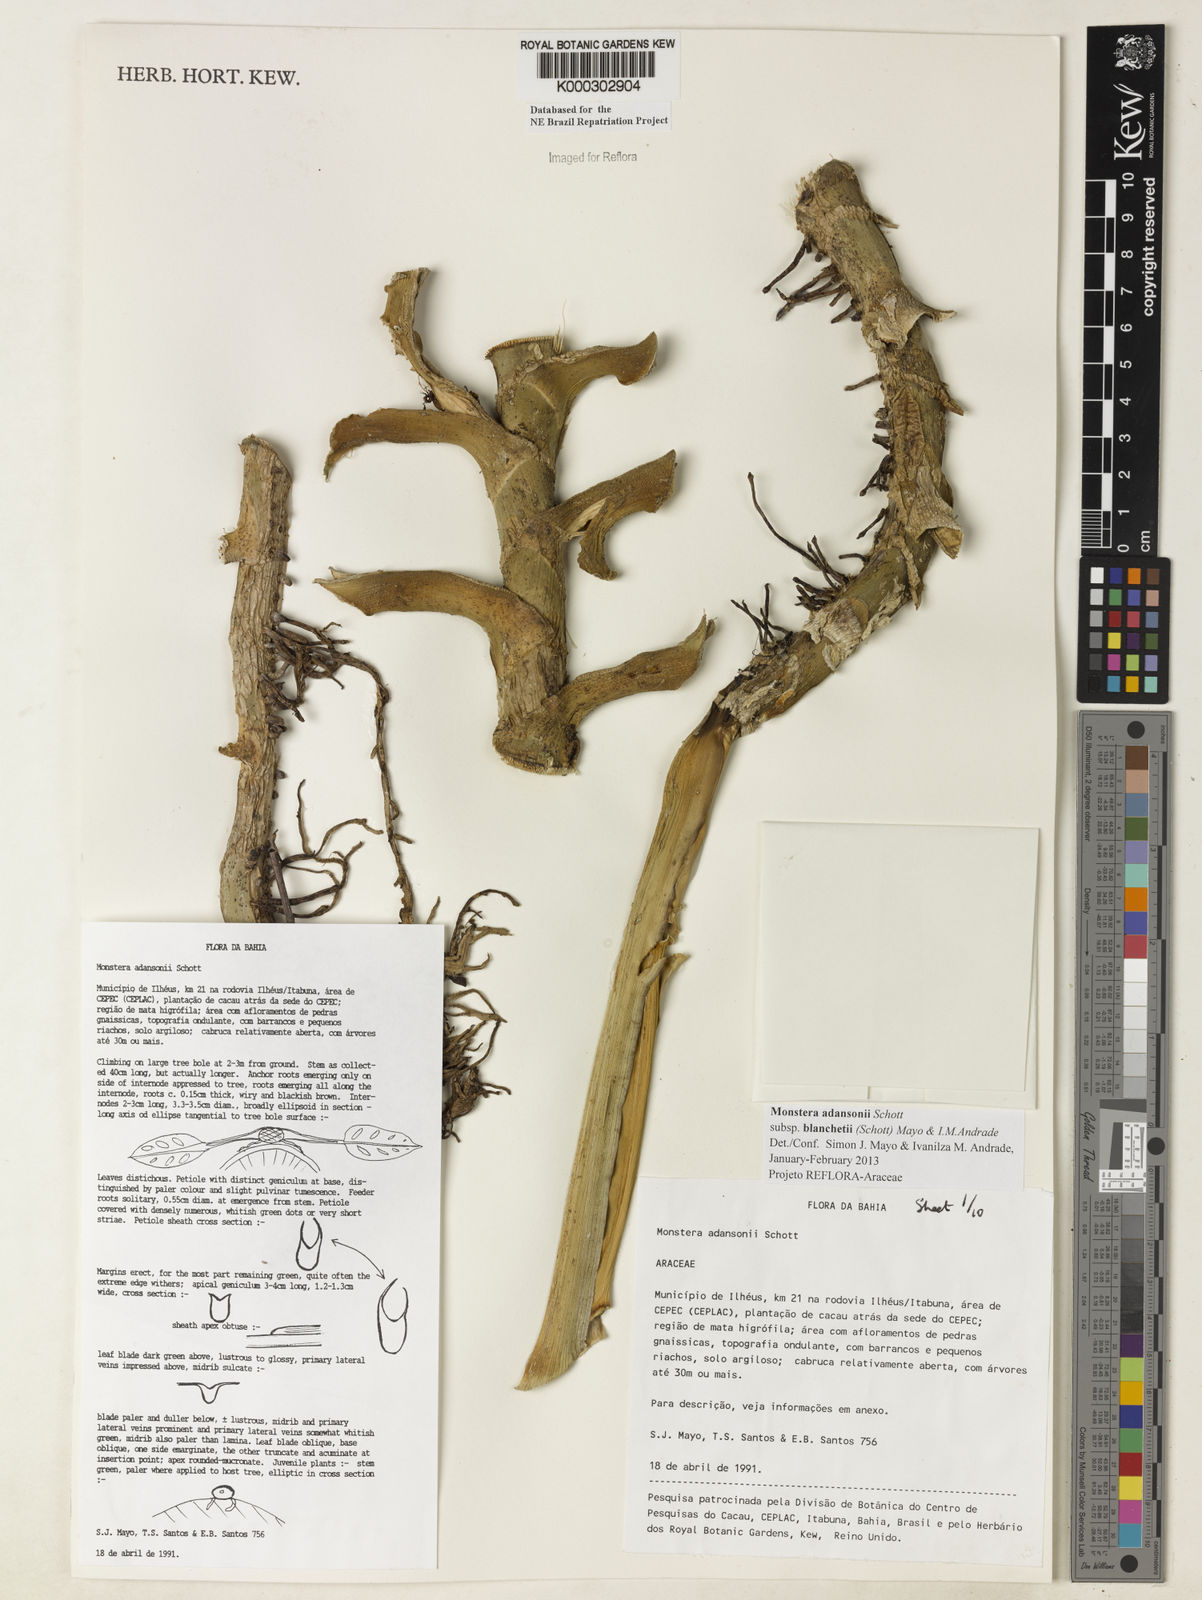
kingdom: Plantae
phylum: Tracheophyta
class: Liliopsida
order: Alismatales
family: Araceae
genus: Monstera
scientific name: Monstera adansonii
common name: Tarovine
